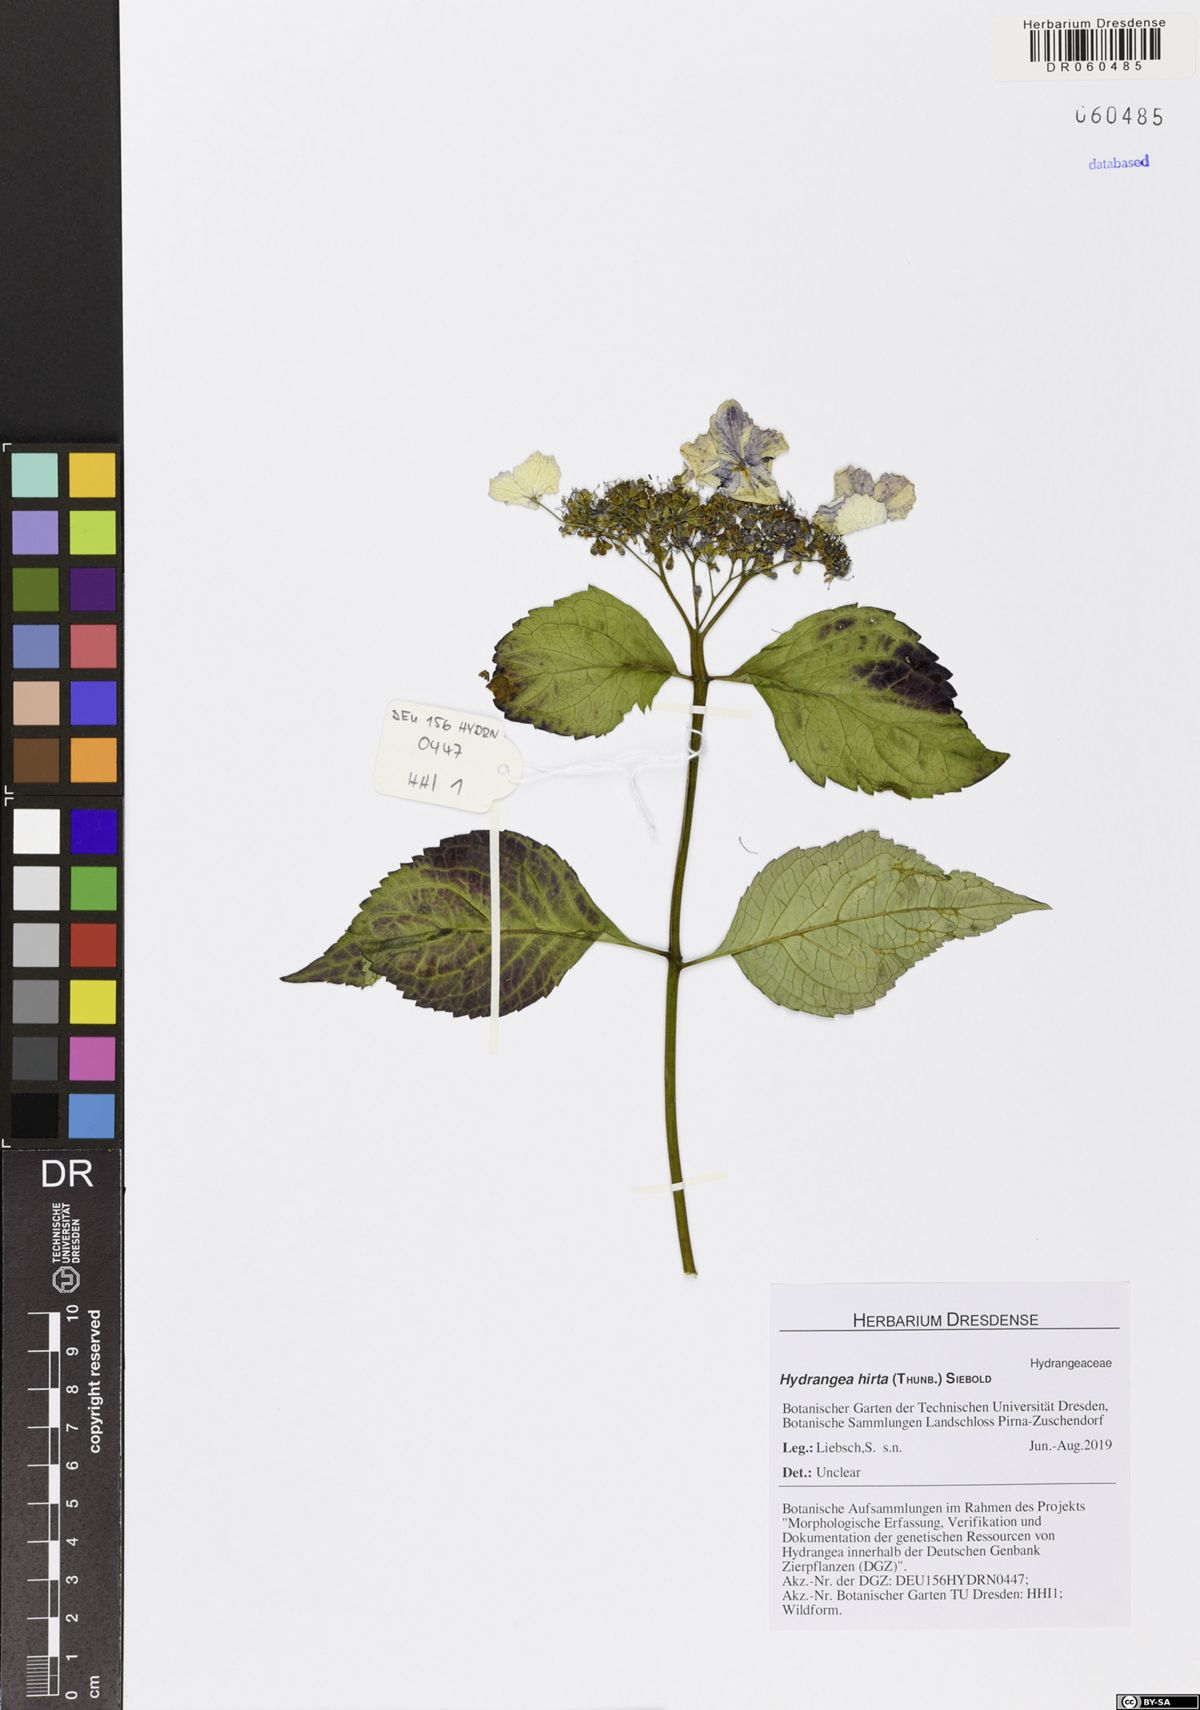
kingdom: Plantae
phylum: Tracheophyta
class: Magnoliopsida
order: Cornales
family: Hydrangeaceae
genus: Hydrangea
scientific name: Hydrangea hirta
